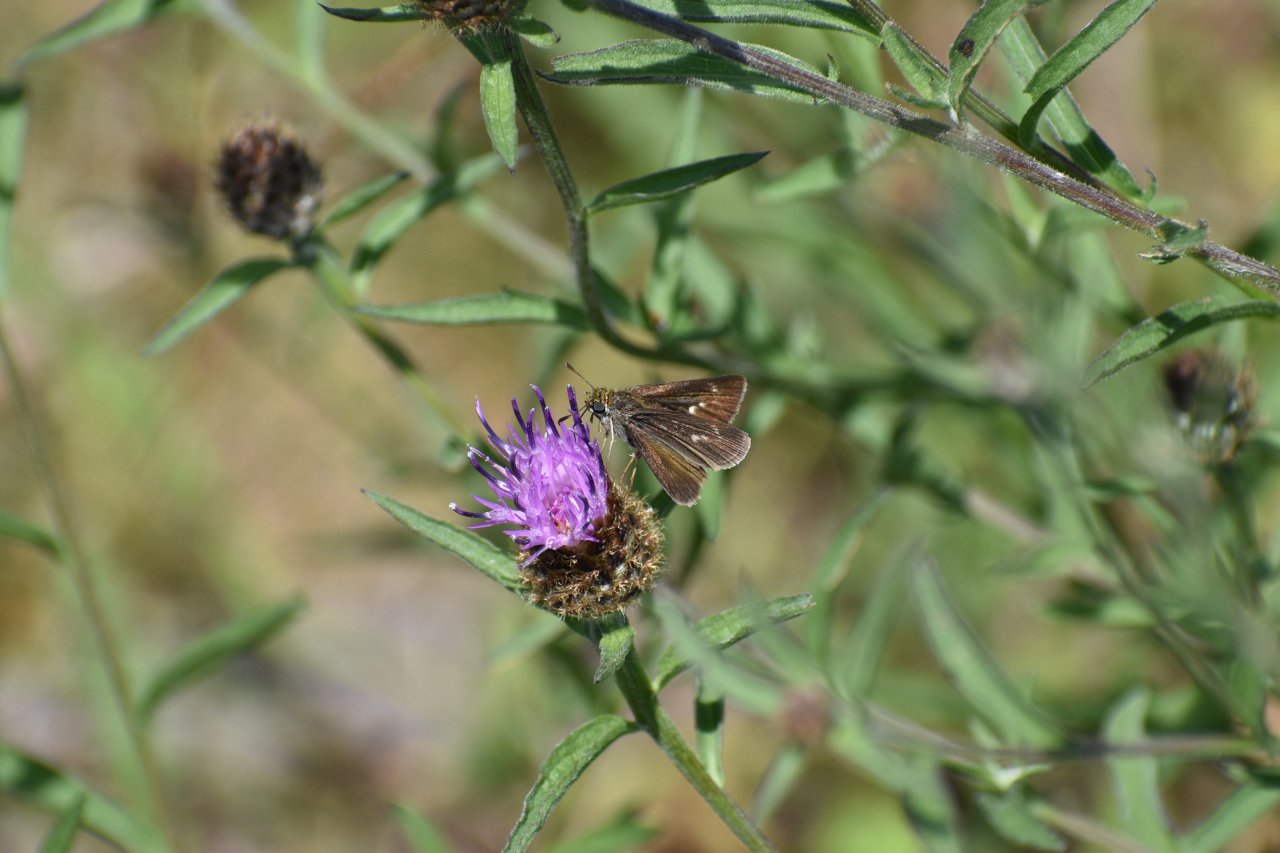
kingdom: Animalia
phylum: Arthropoda
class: Insecta
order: Lepidoptera
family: Hesperiidae
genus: Euphyes
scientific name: Euphyes vestris
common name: Dun Skipper
